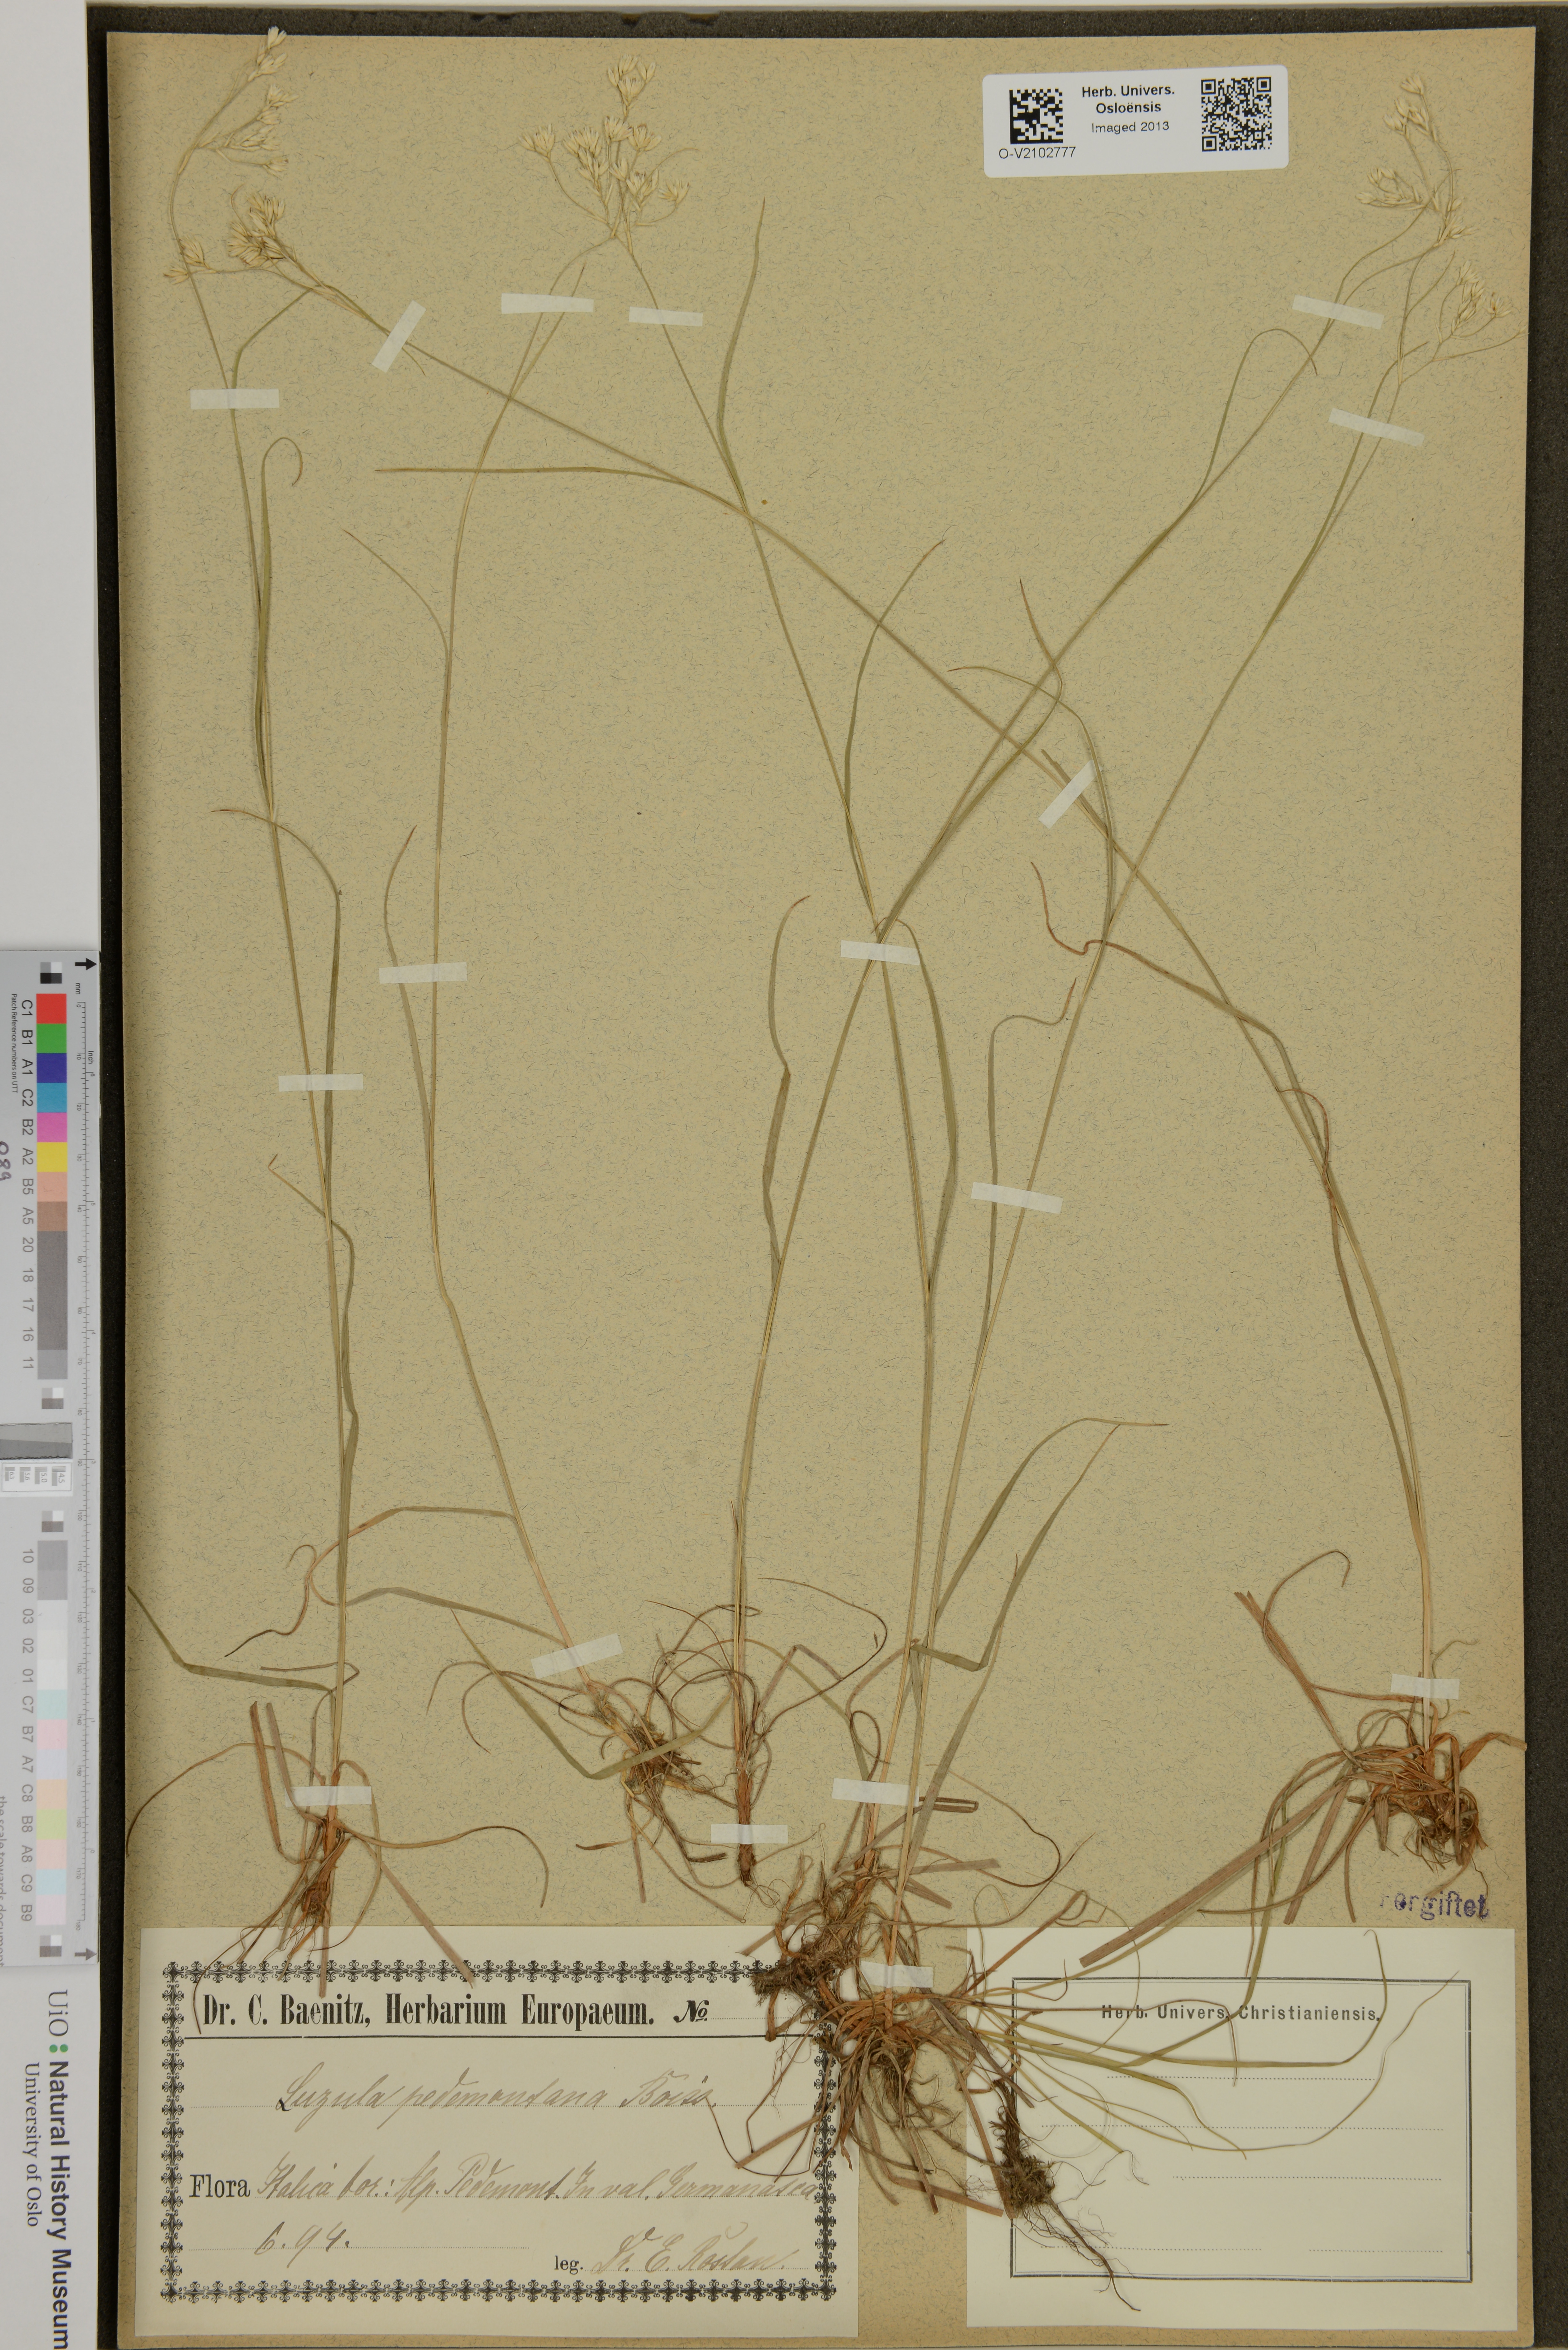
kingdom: Plantae
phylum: Tracheophyta
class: Liliopsida
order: Poales
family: Juncaceae
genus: Luzula
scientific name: Luzula pedemontana
